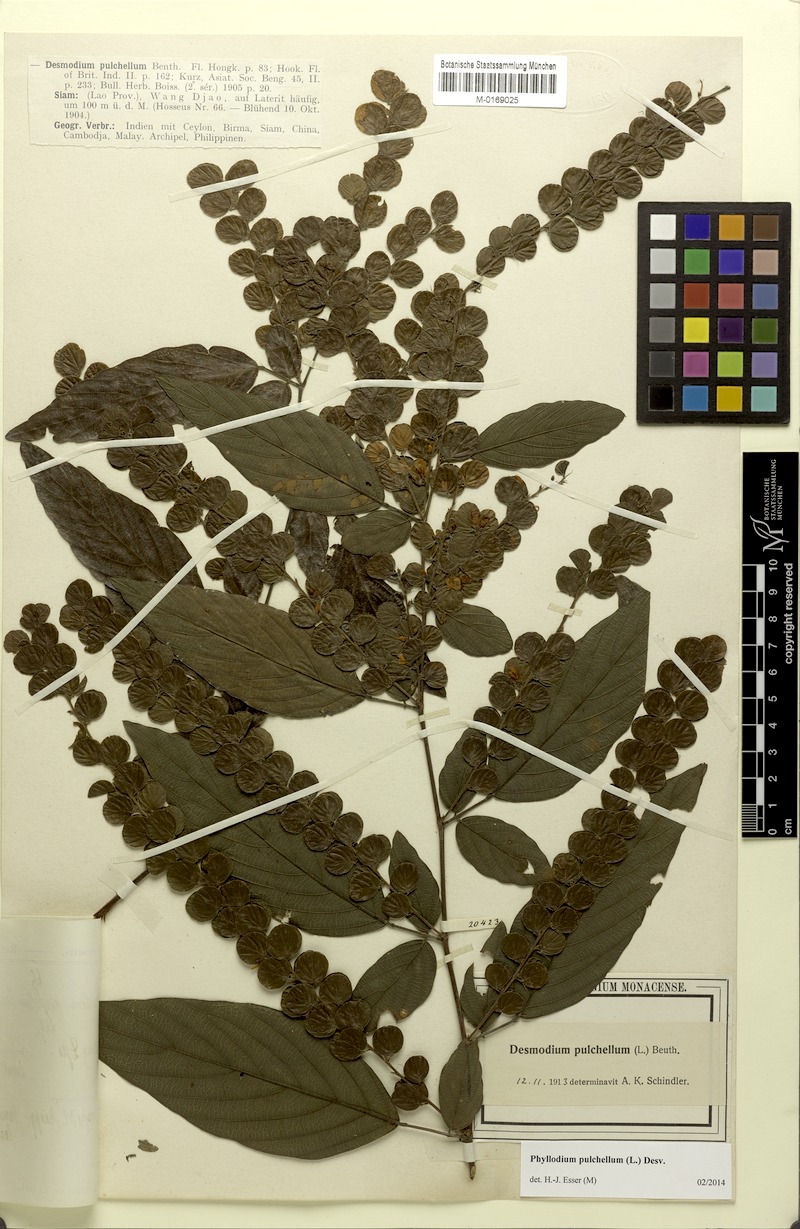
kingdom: Plantae
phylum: Tracheophyta
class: Magnoliopsida
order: Fabales
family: Fabaceae
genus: Phyllodium
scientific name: Phyllodium pulchellum
